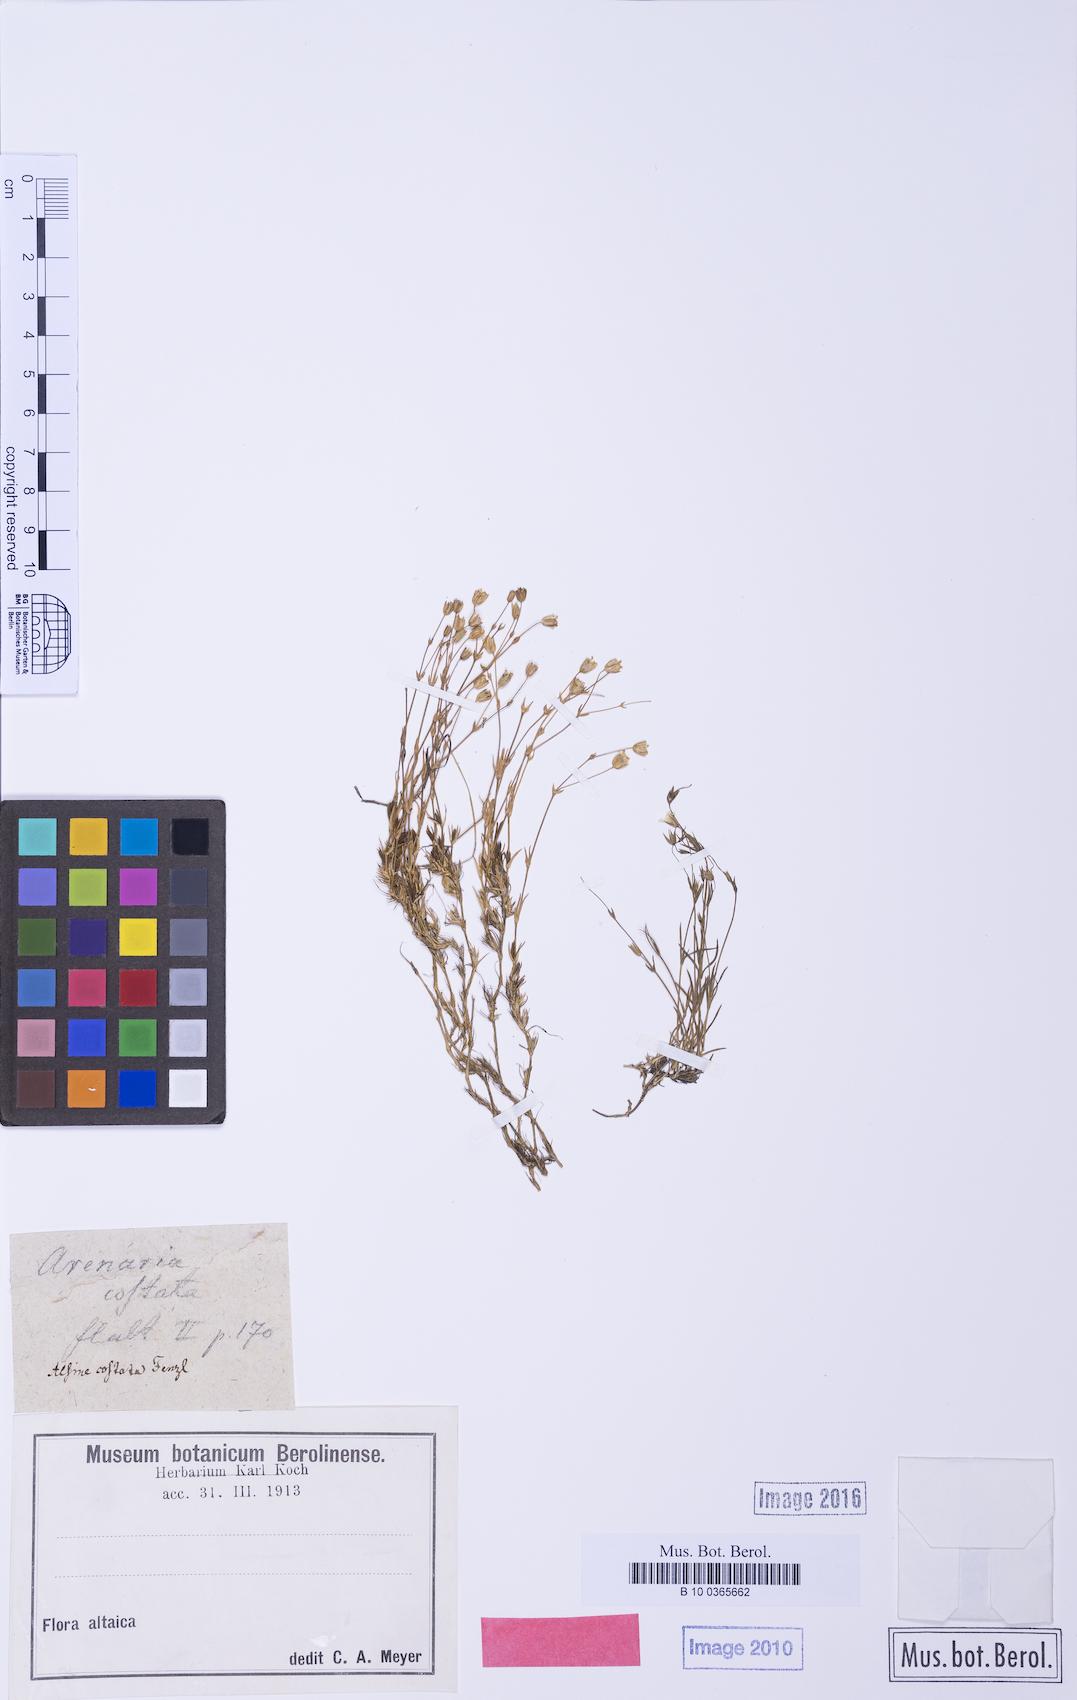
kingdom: Plantae
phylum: Tracheophyta
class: Magnoliopsida
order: Caryophyllales
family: Caryophyllaceae
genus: Arenaria
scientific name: Arenaria costata
